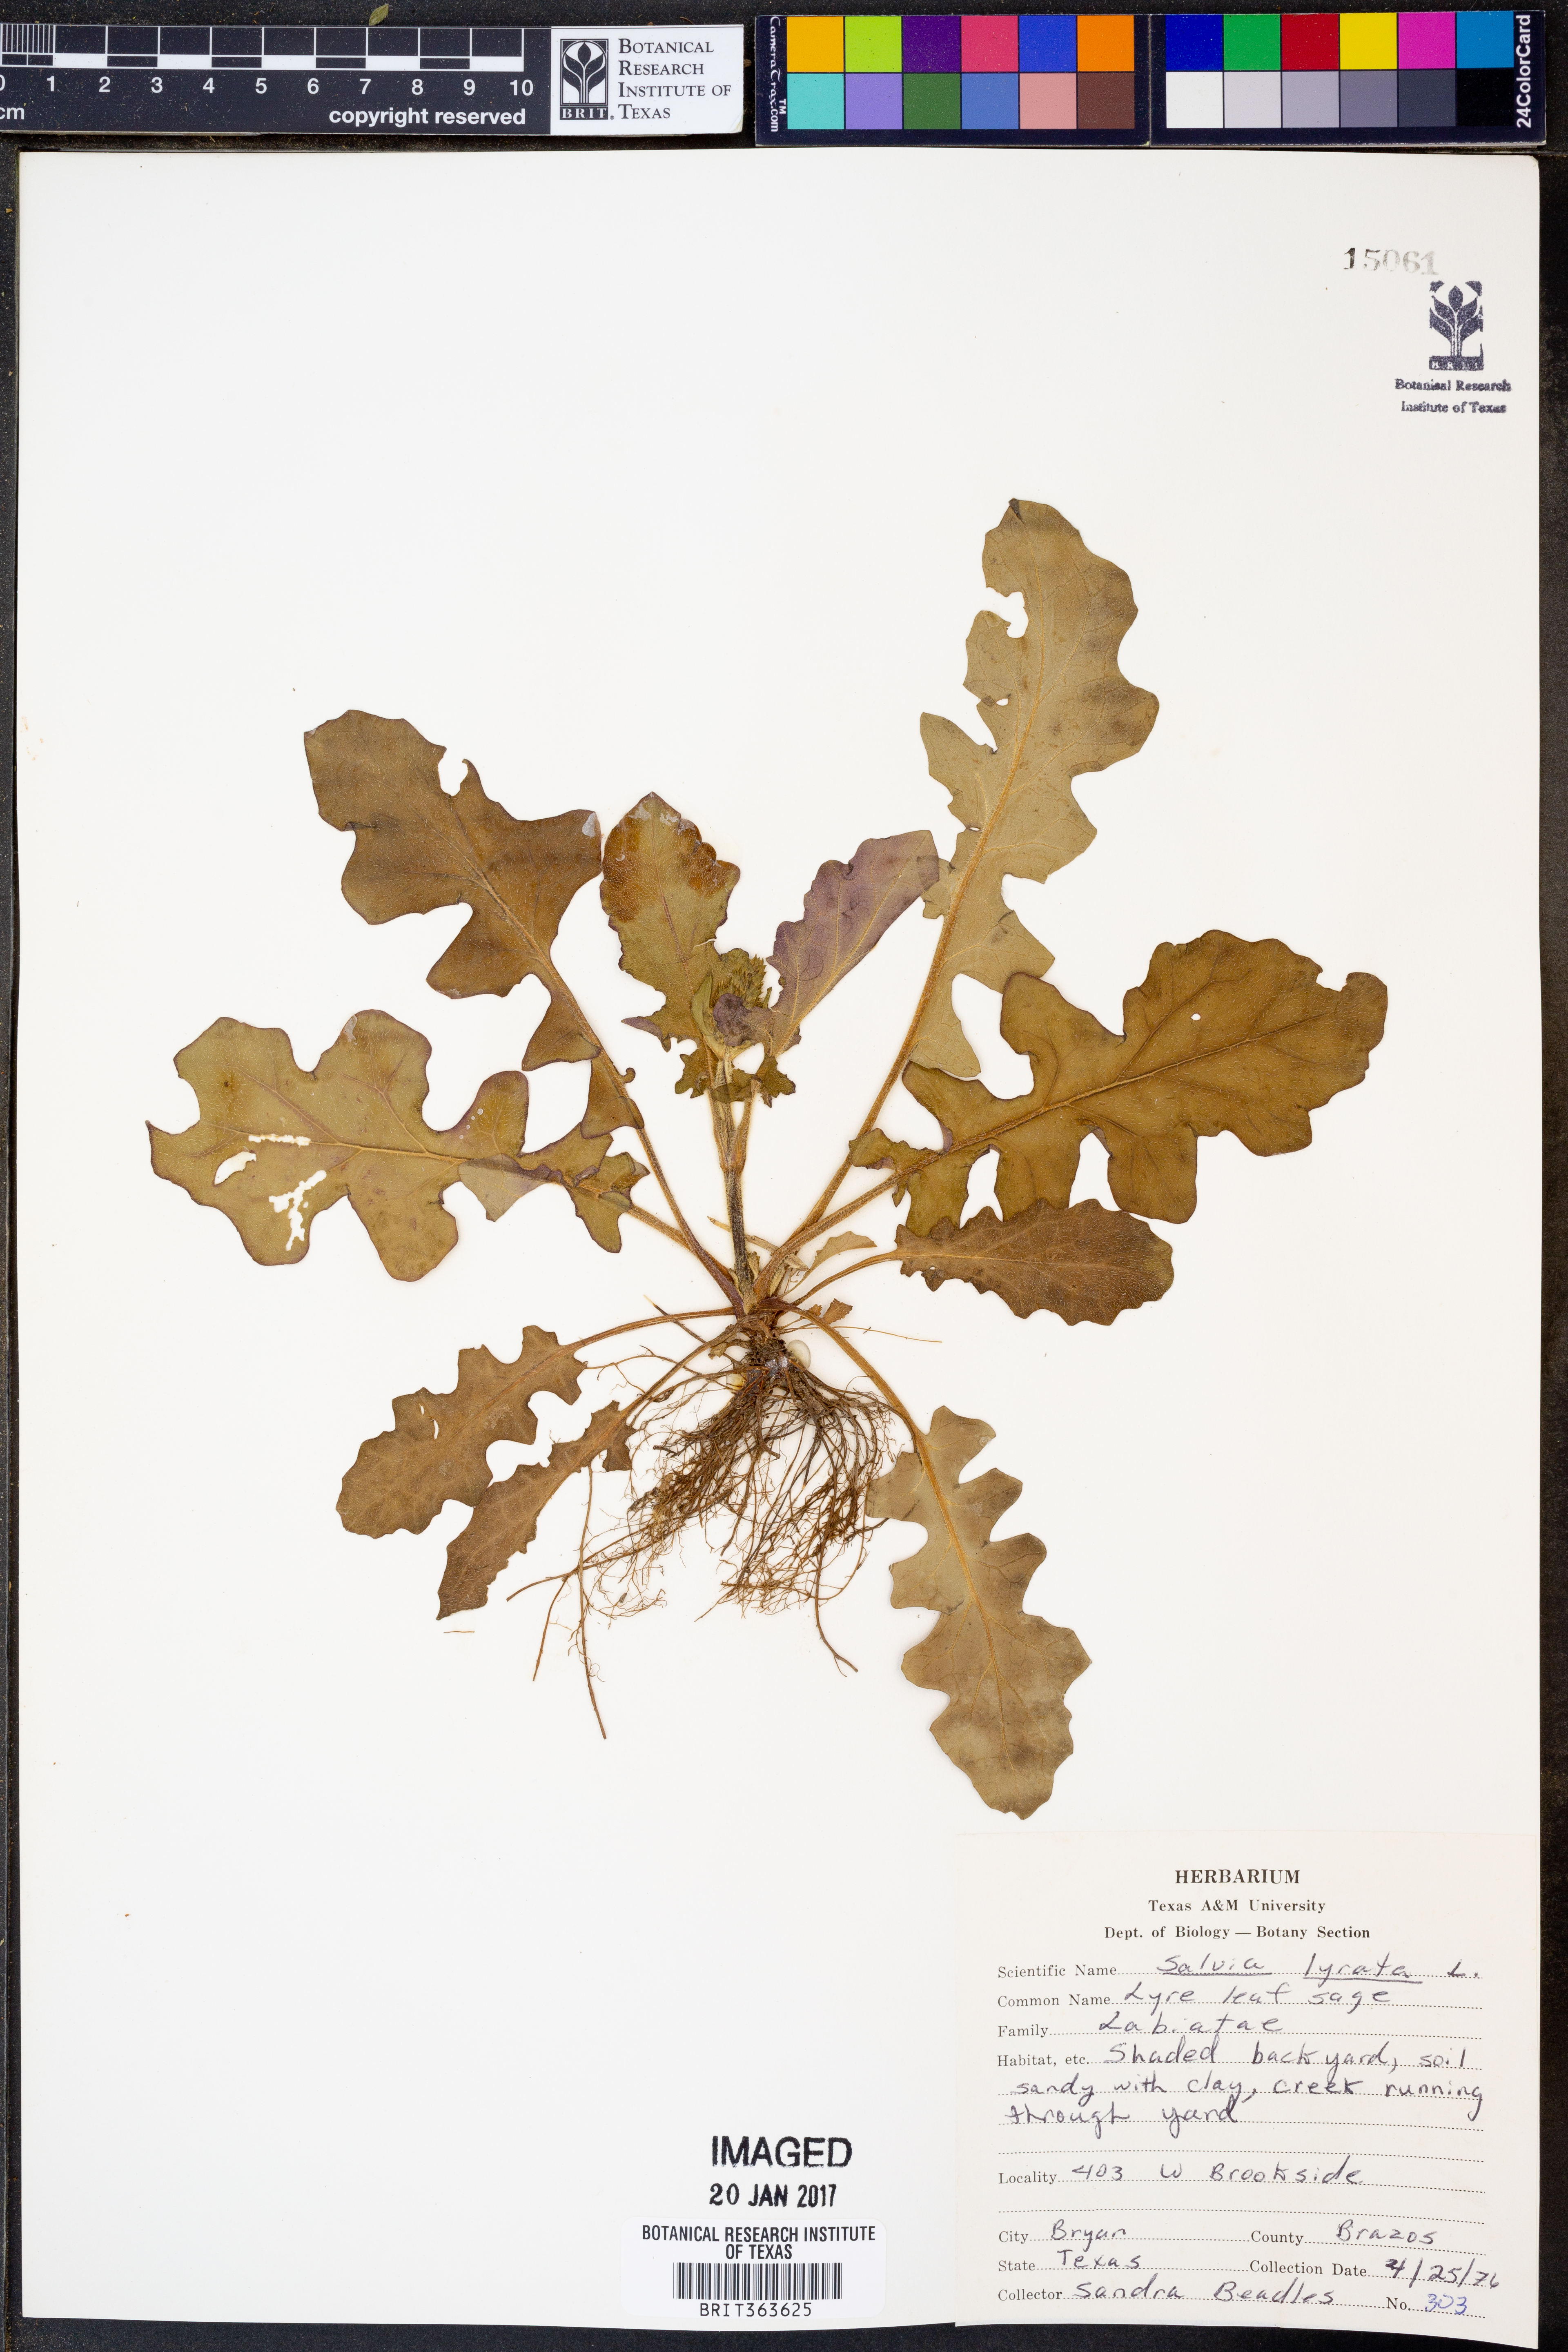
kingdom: Plantae
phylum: Tracheophyta
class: Magnoliopsida
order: Lamiales
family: Lamiaceae
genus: Salvia
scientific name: Salvia lyrata
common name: Cancerweed
